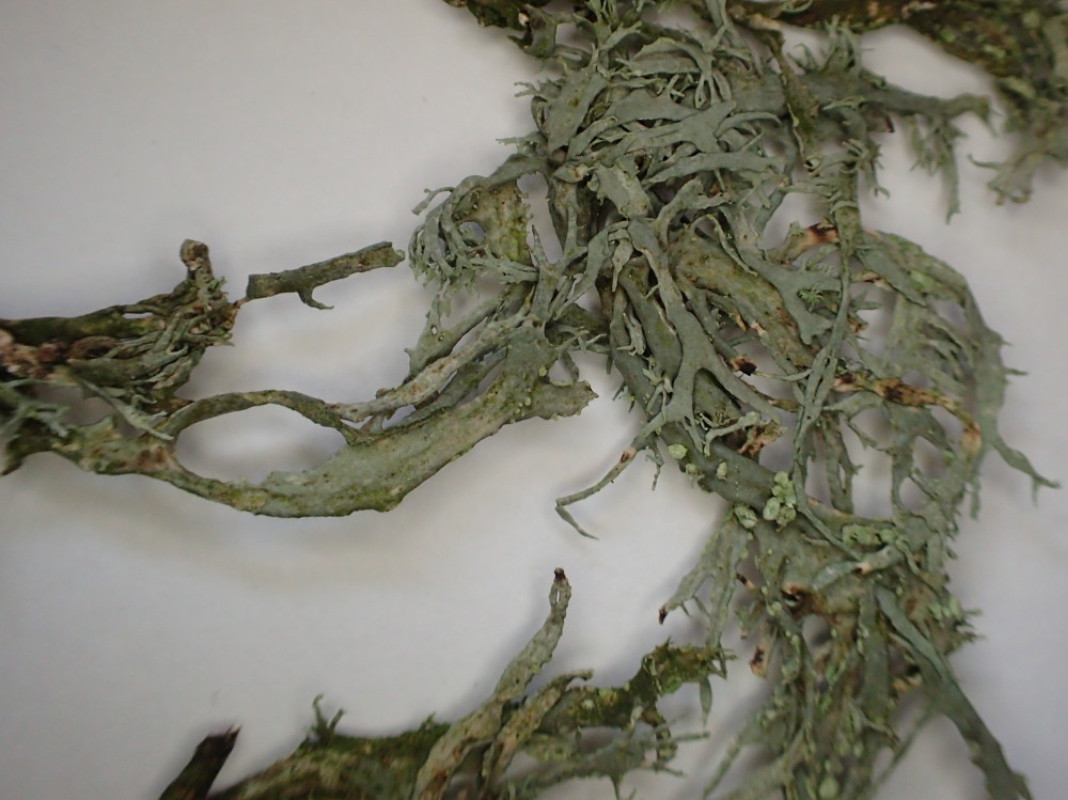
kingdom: Fungi
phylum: Ascomycota
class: Lecanoromycetes
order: Lecanorales
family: Ramalinaceae
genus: Ramalina
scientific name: Ramalina farinacea
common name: melet grenlav
